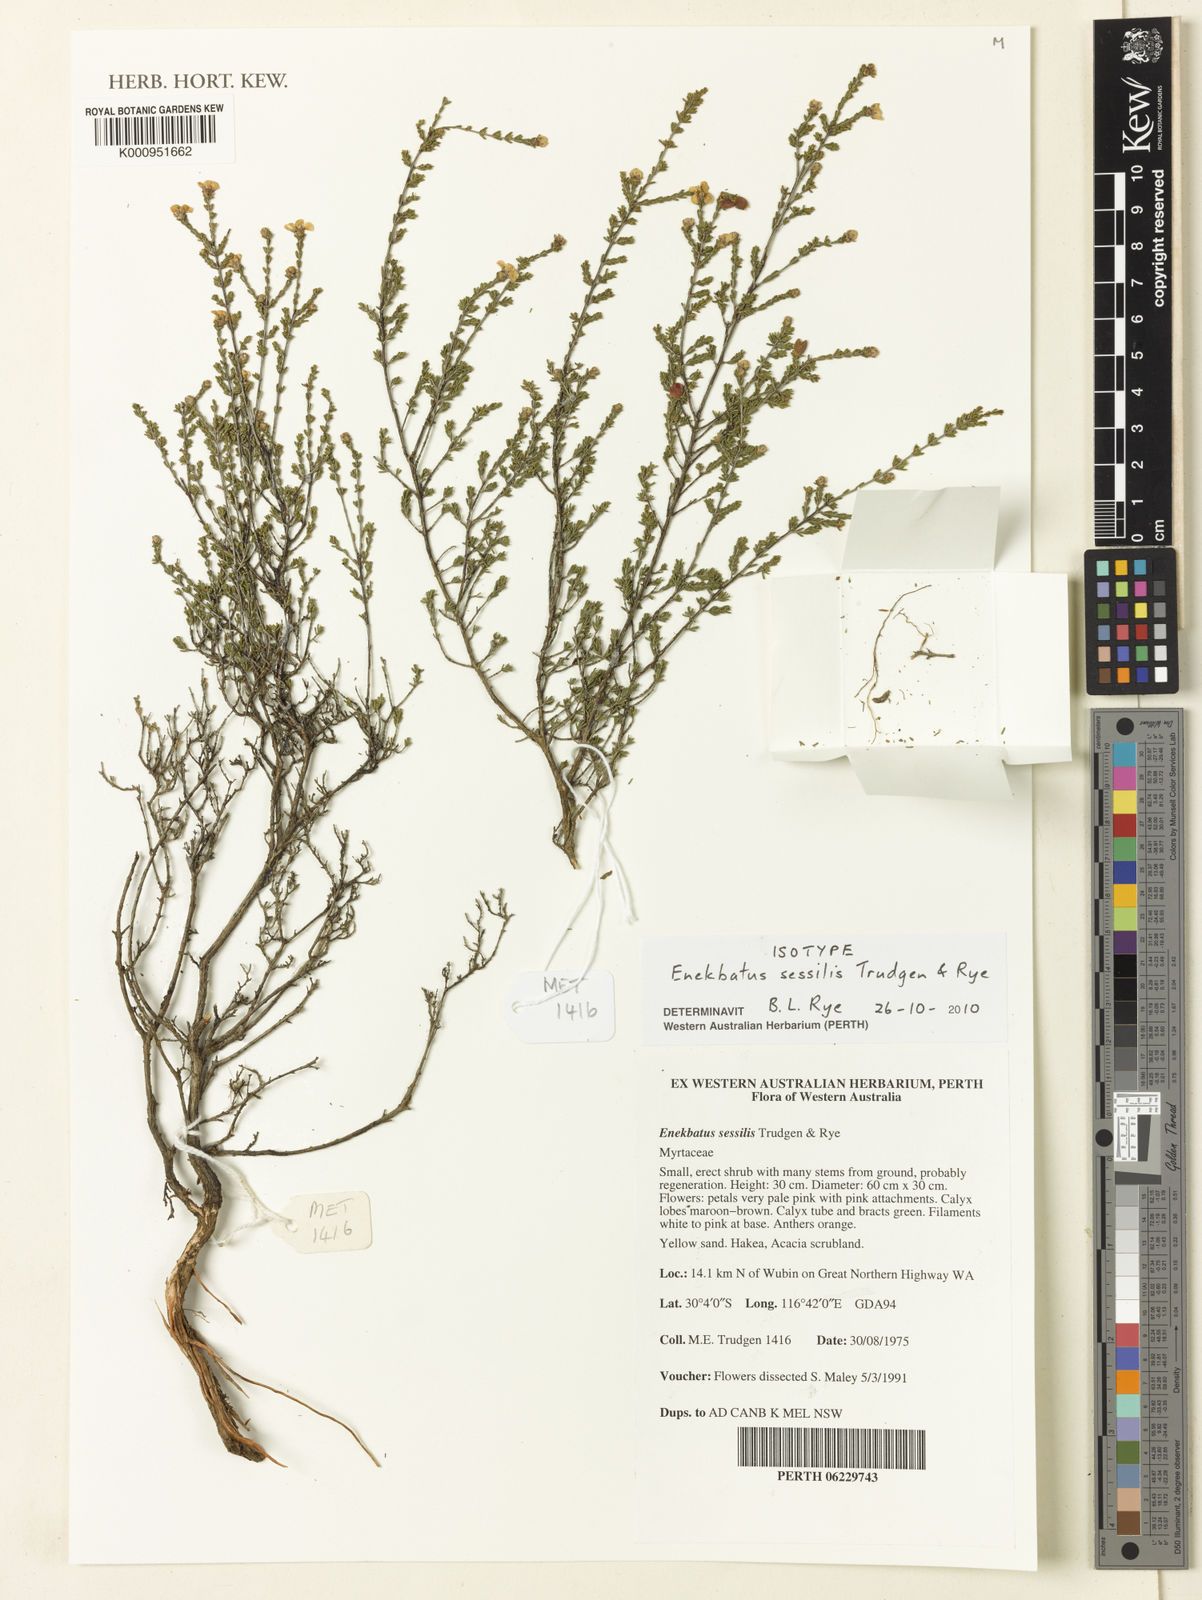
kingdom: Plantae
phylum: Tracheophyta
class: Magnoliopsida
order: Myrtales
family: Myrtaceae
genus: Enekbatus
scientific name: Enekbatus sessilis
